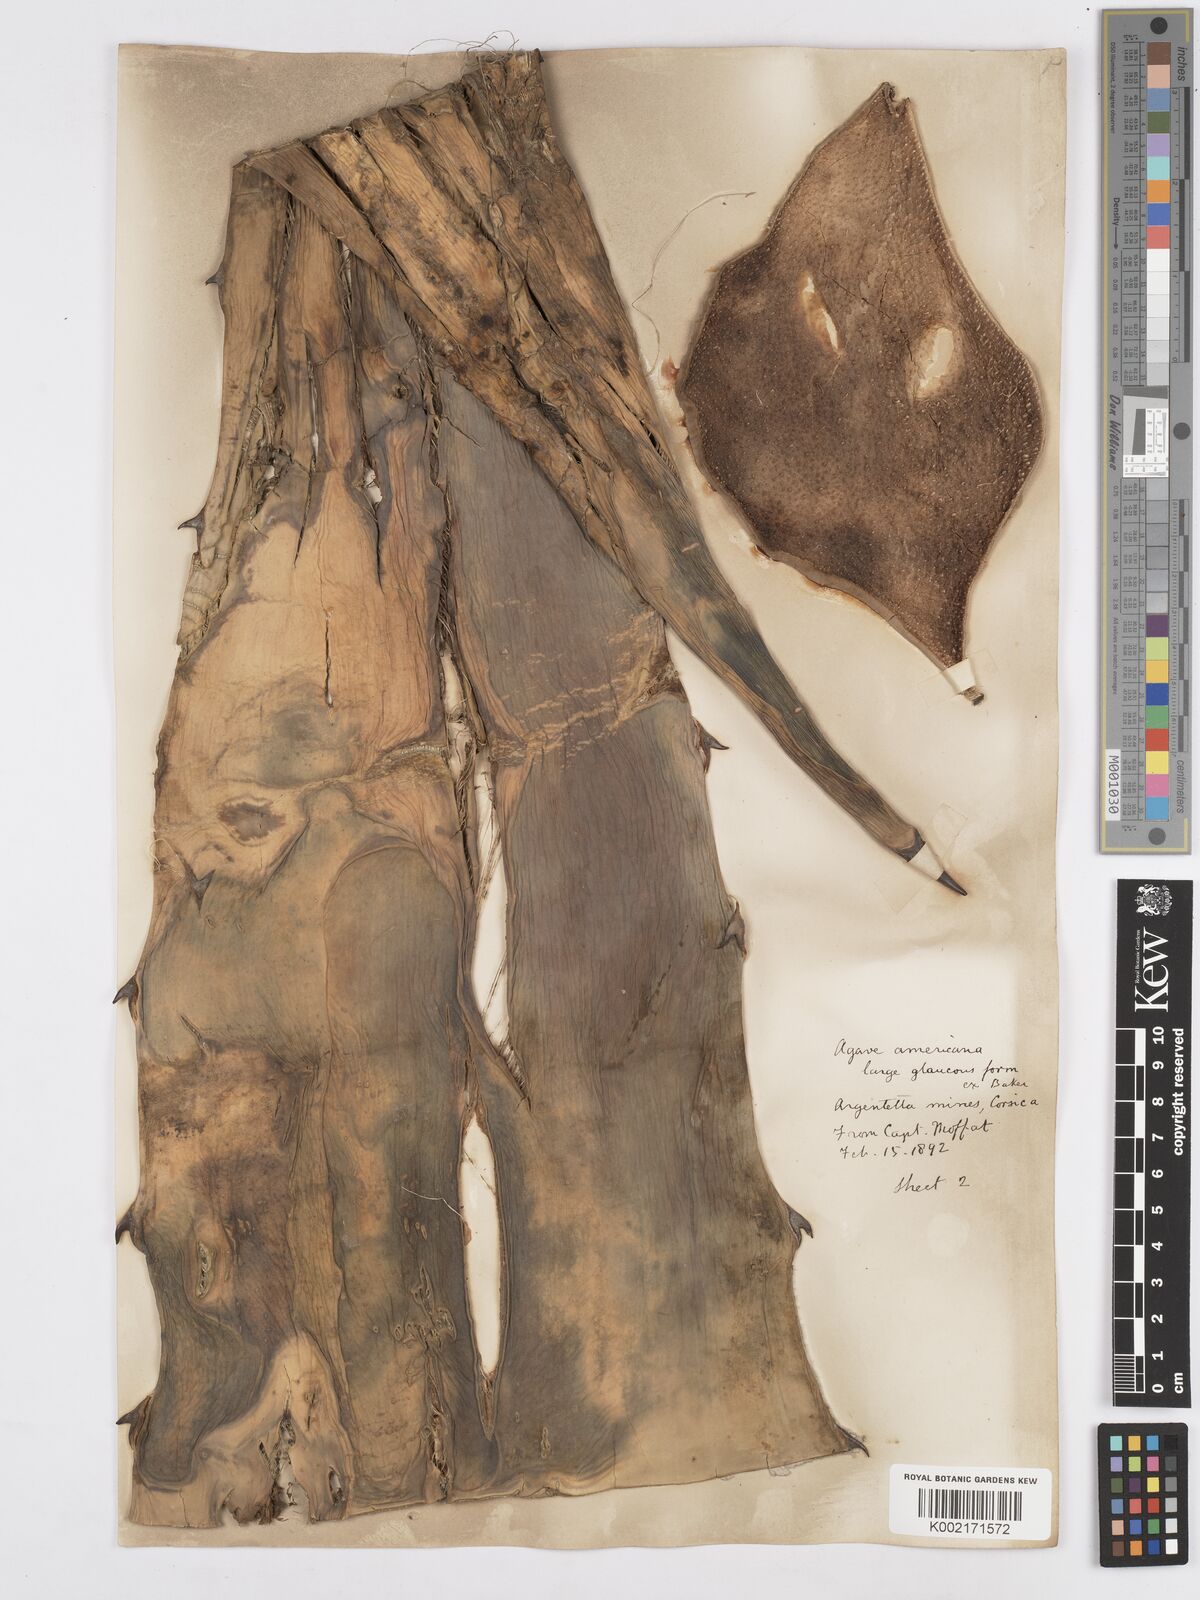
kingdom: Plantae
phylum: Tracheophyta
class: Liliopsida
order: Asparagales
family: Asparagaceae
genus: Agave
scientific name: Agave longisepala
